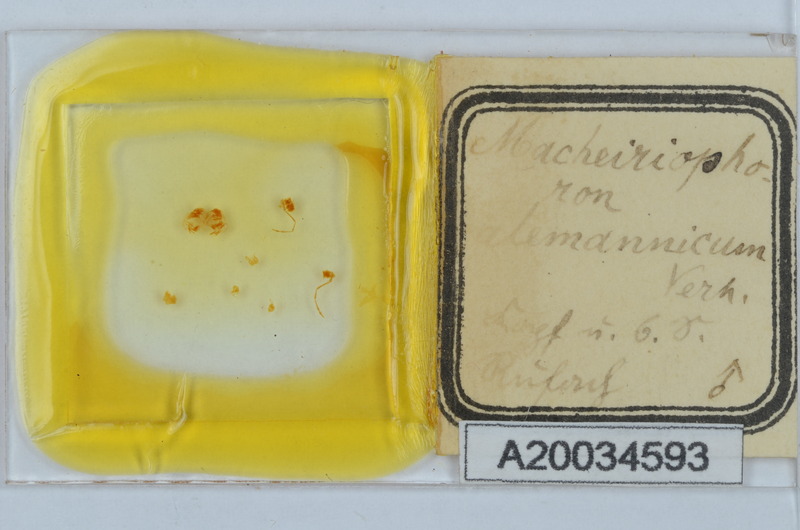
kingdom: Animalia
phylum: Arthropoda
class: Diplopoda
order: Chordeumatida
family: Craspedosomatidae
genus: Macheiriophoron
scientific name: Macheiriophoron alemannicum
